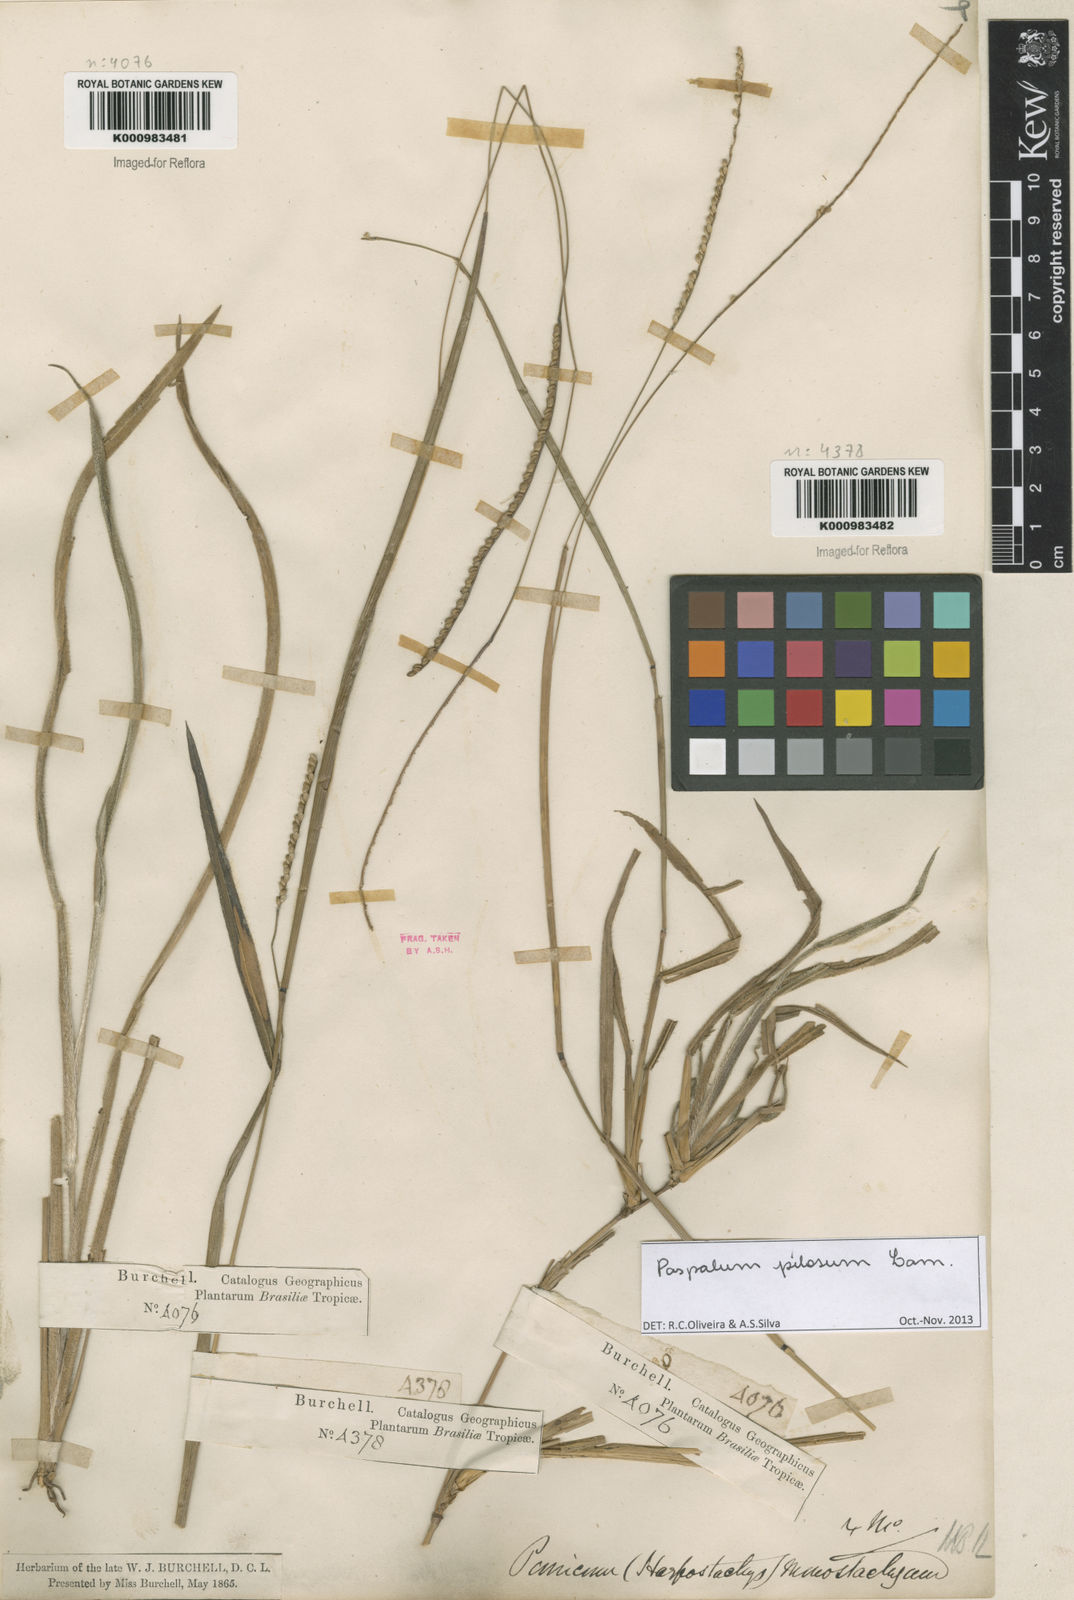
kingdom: Plantae
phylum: Tracheophyta
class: Liliopsida
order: Poales
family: Poaceae
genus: Paspalum
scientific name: Paspalum pilosum
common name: Crowngrass
